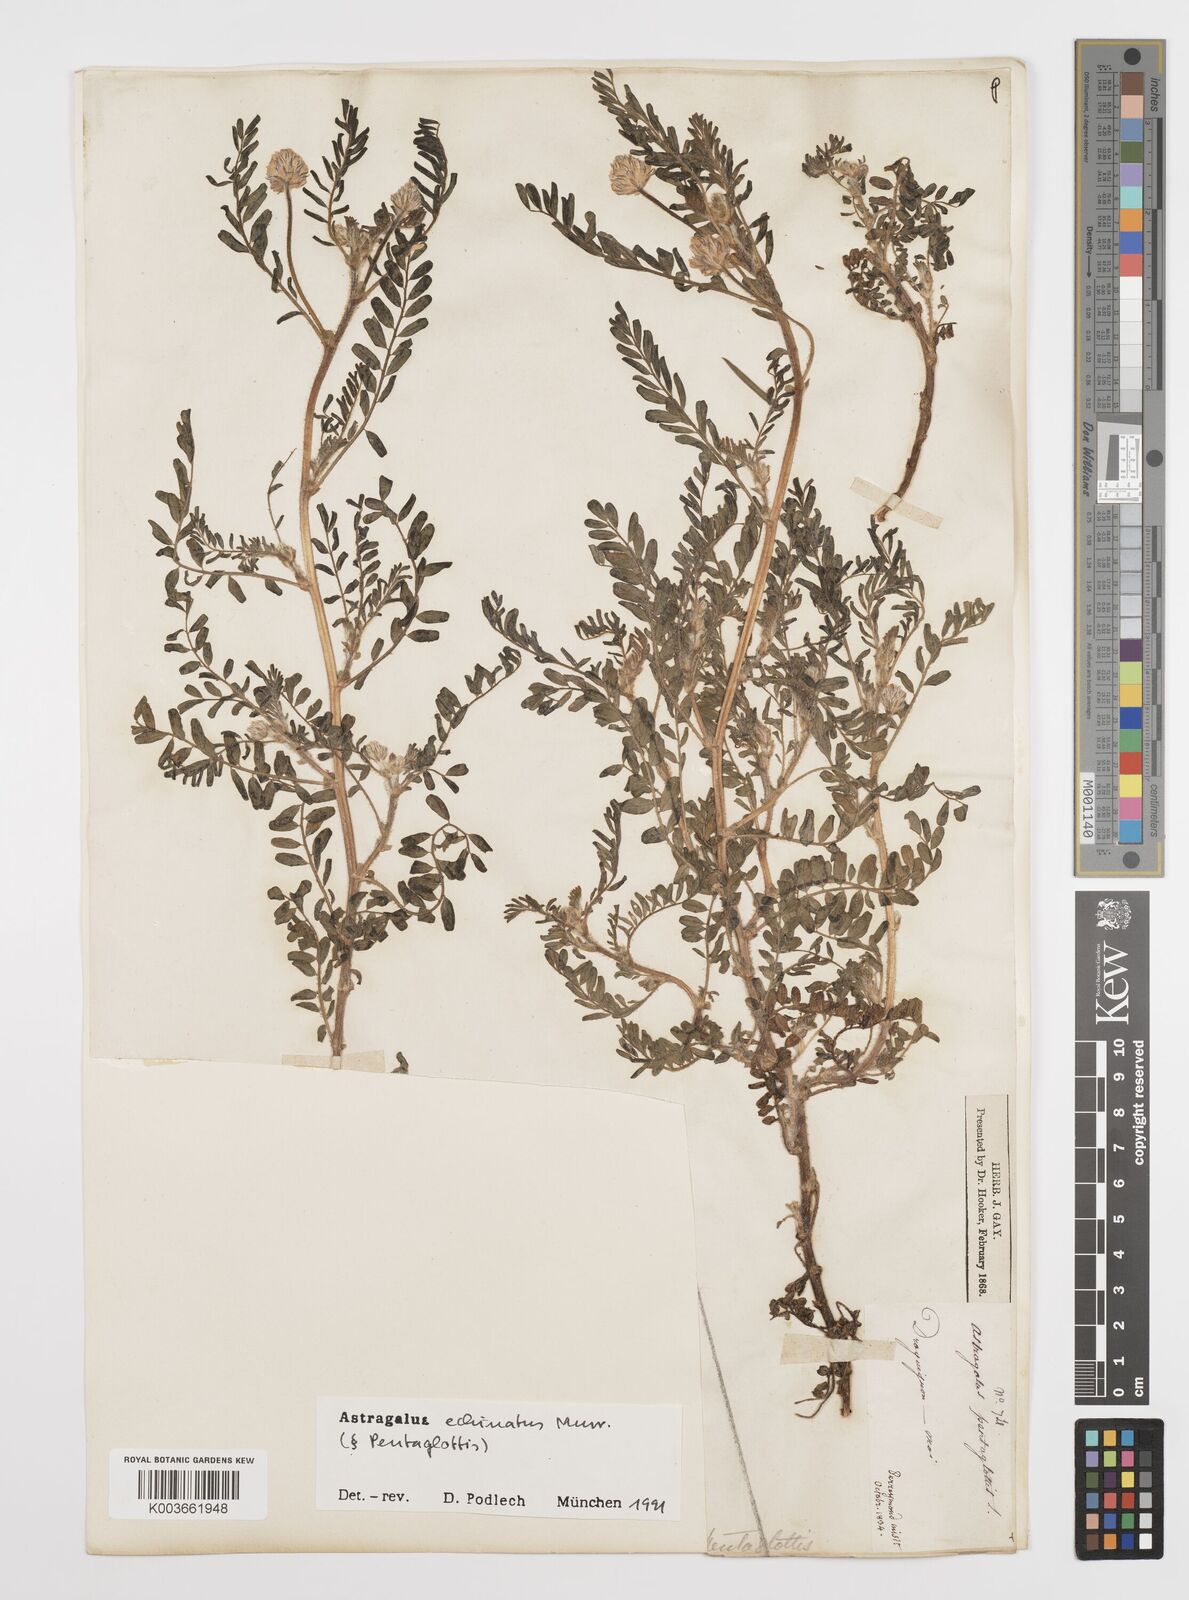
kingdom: Plantae
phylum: Tracheophyta
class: Magnoliopsida
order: Fabales
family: Fabaceae
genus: Astragalus
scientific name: Astragalus echinatus
